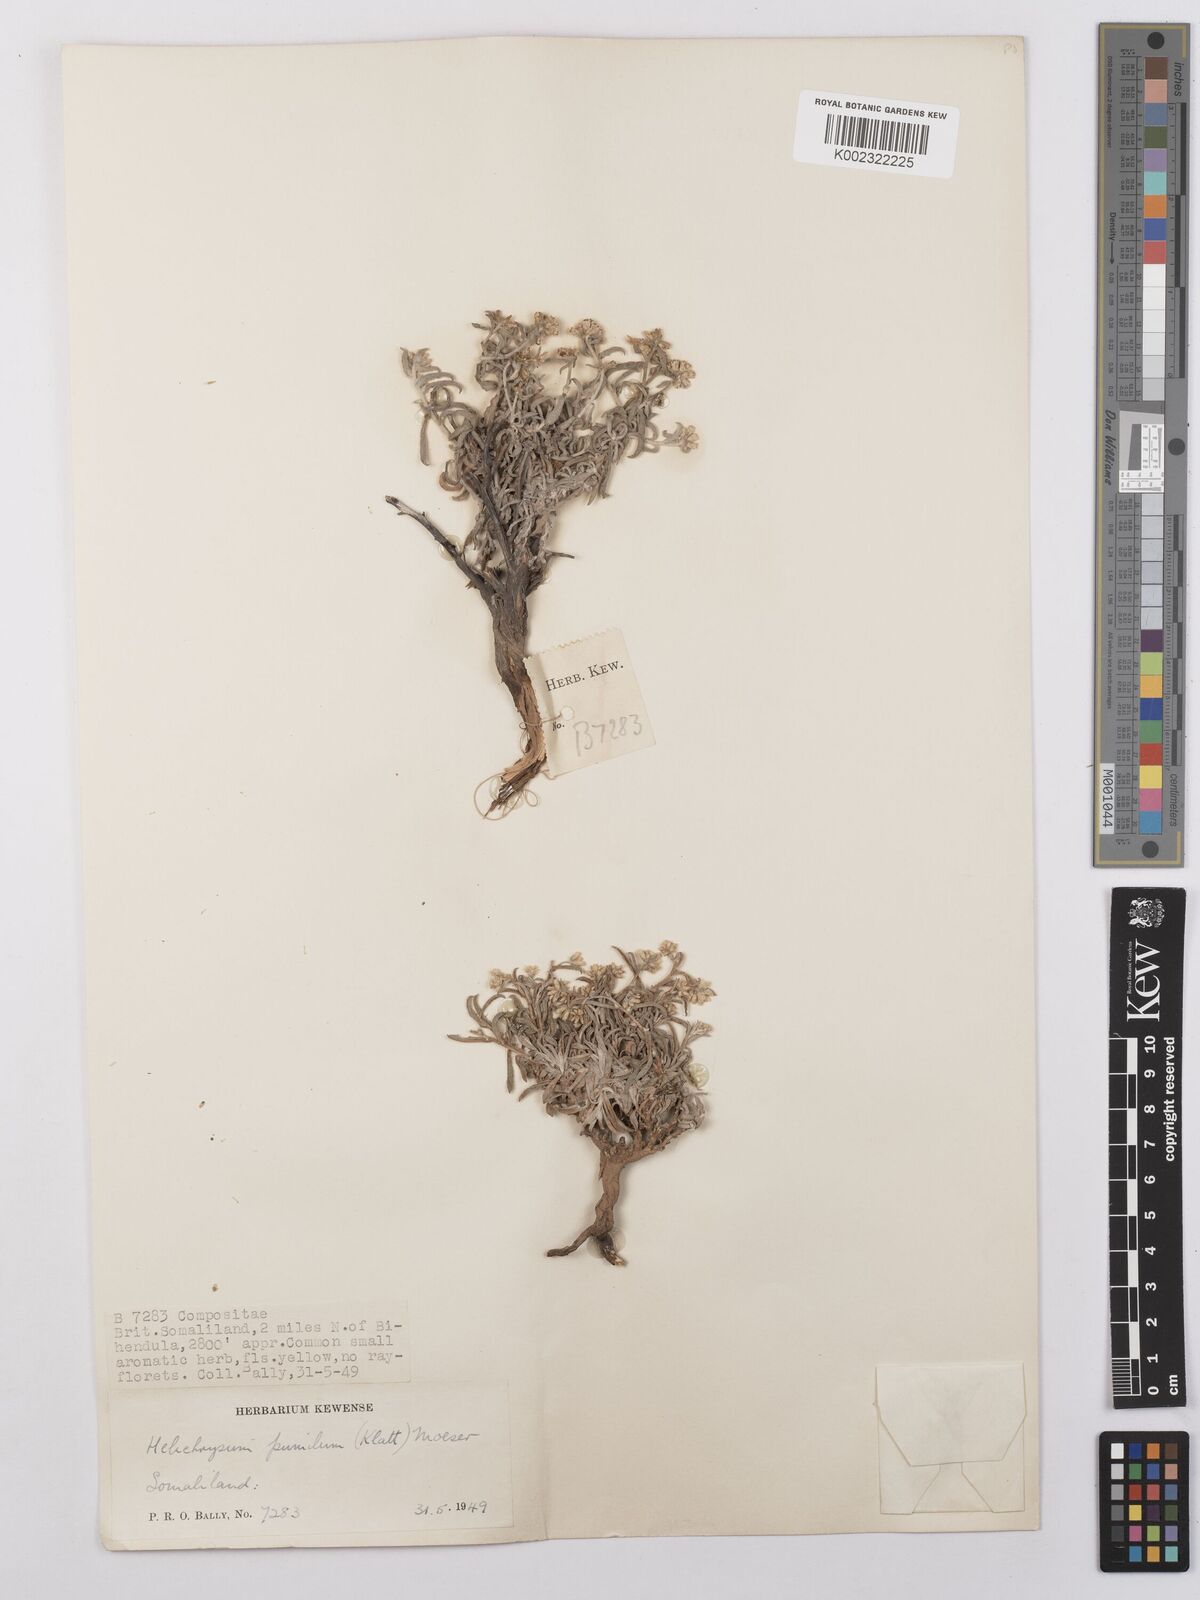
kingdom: Plantae
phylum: Tracheophyta
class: Magnoliopsida
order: Asterales
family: Asteraceae
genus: Helichrysum
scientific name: Helichrysum pumilum
